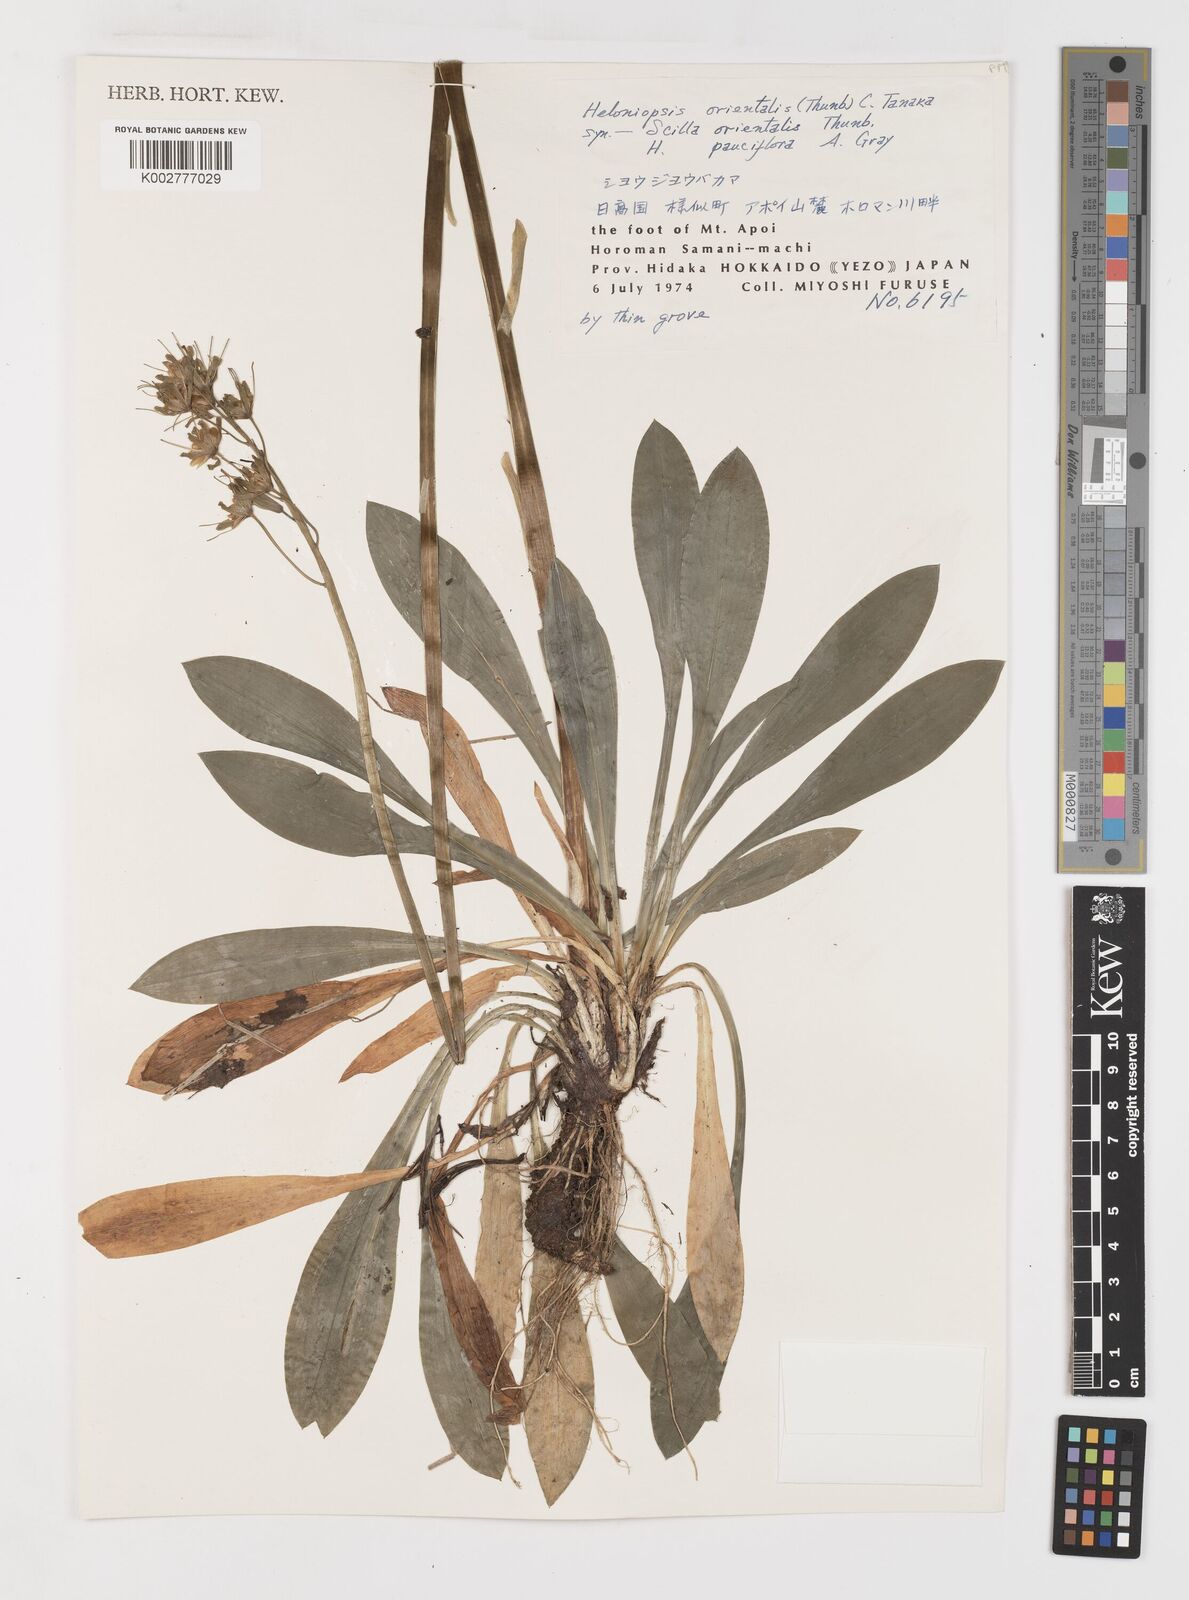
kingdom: Plantae
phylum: Tracheophyta
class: Liliopsida
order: Liliales
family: Melanthiaceae
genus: Helonias
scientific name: Helonias orientalis
